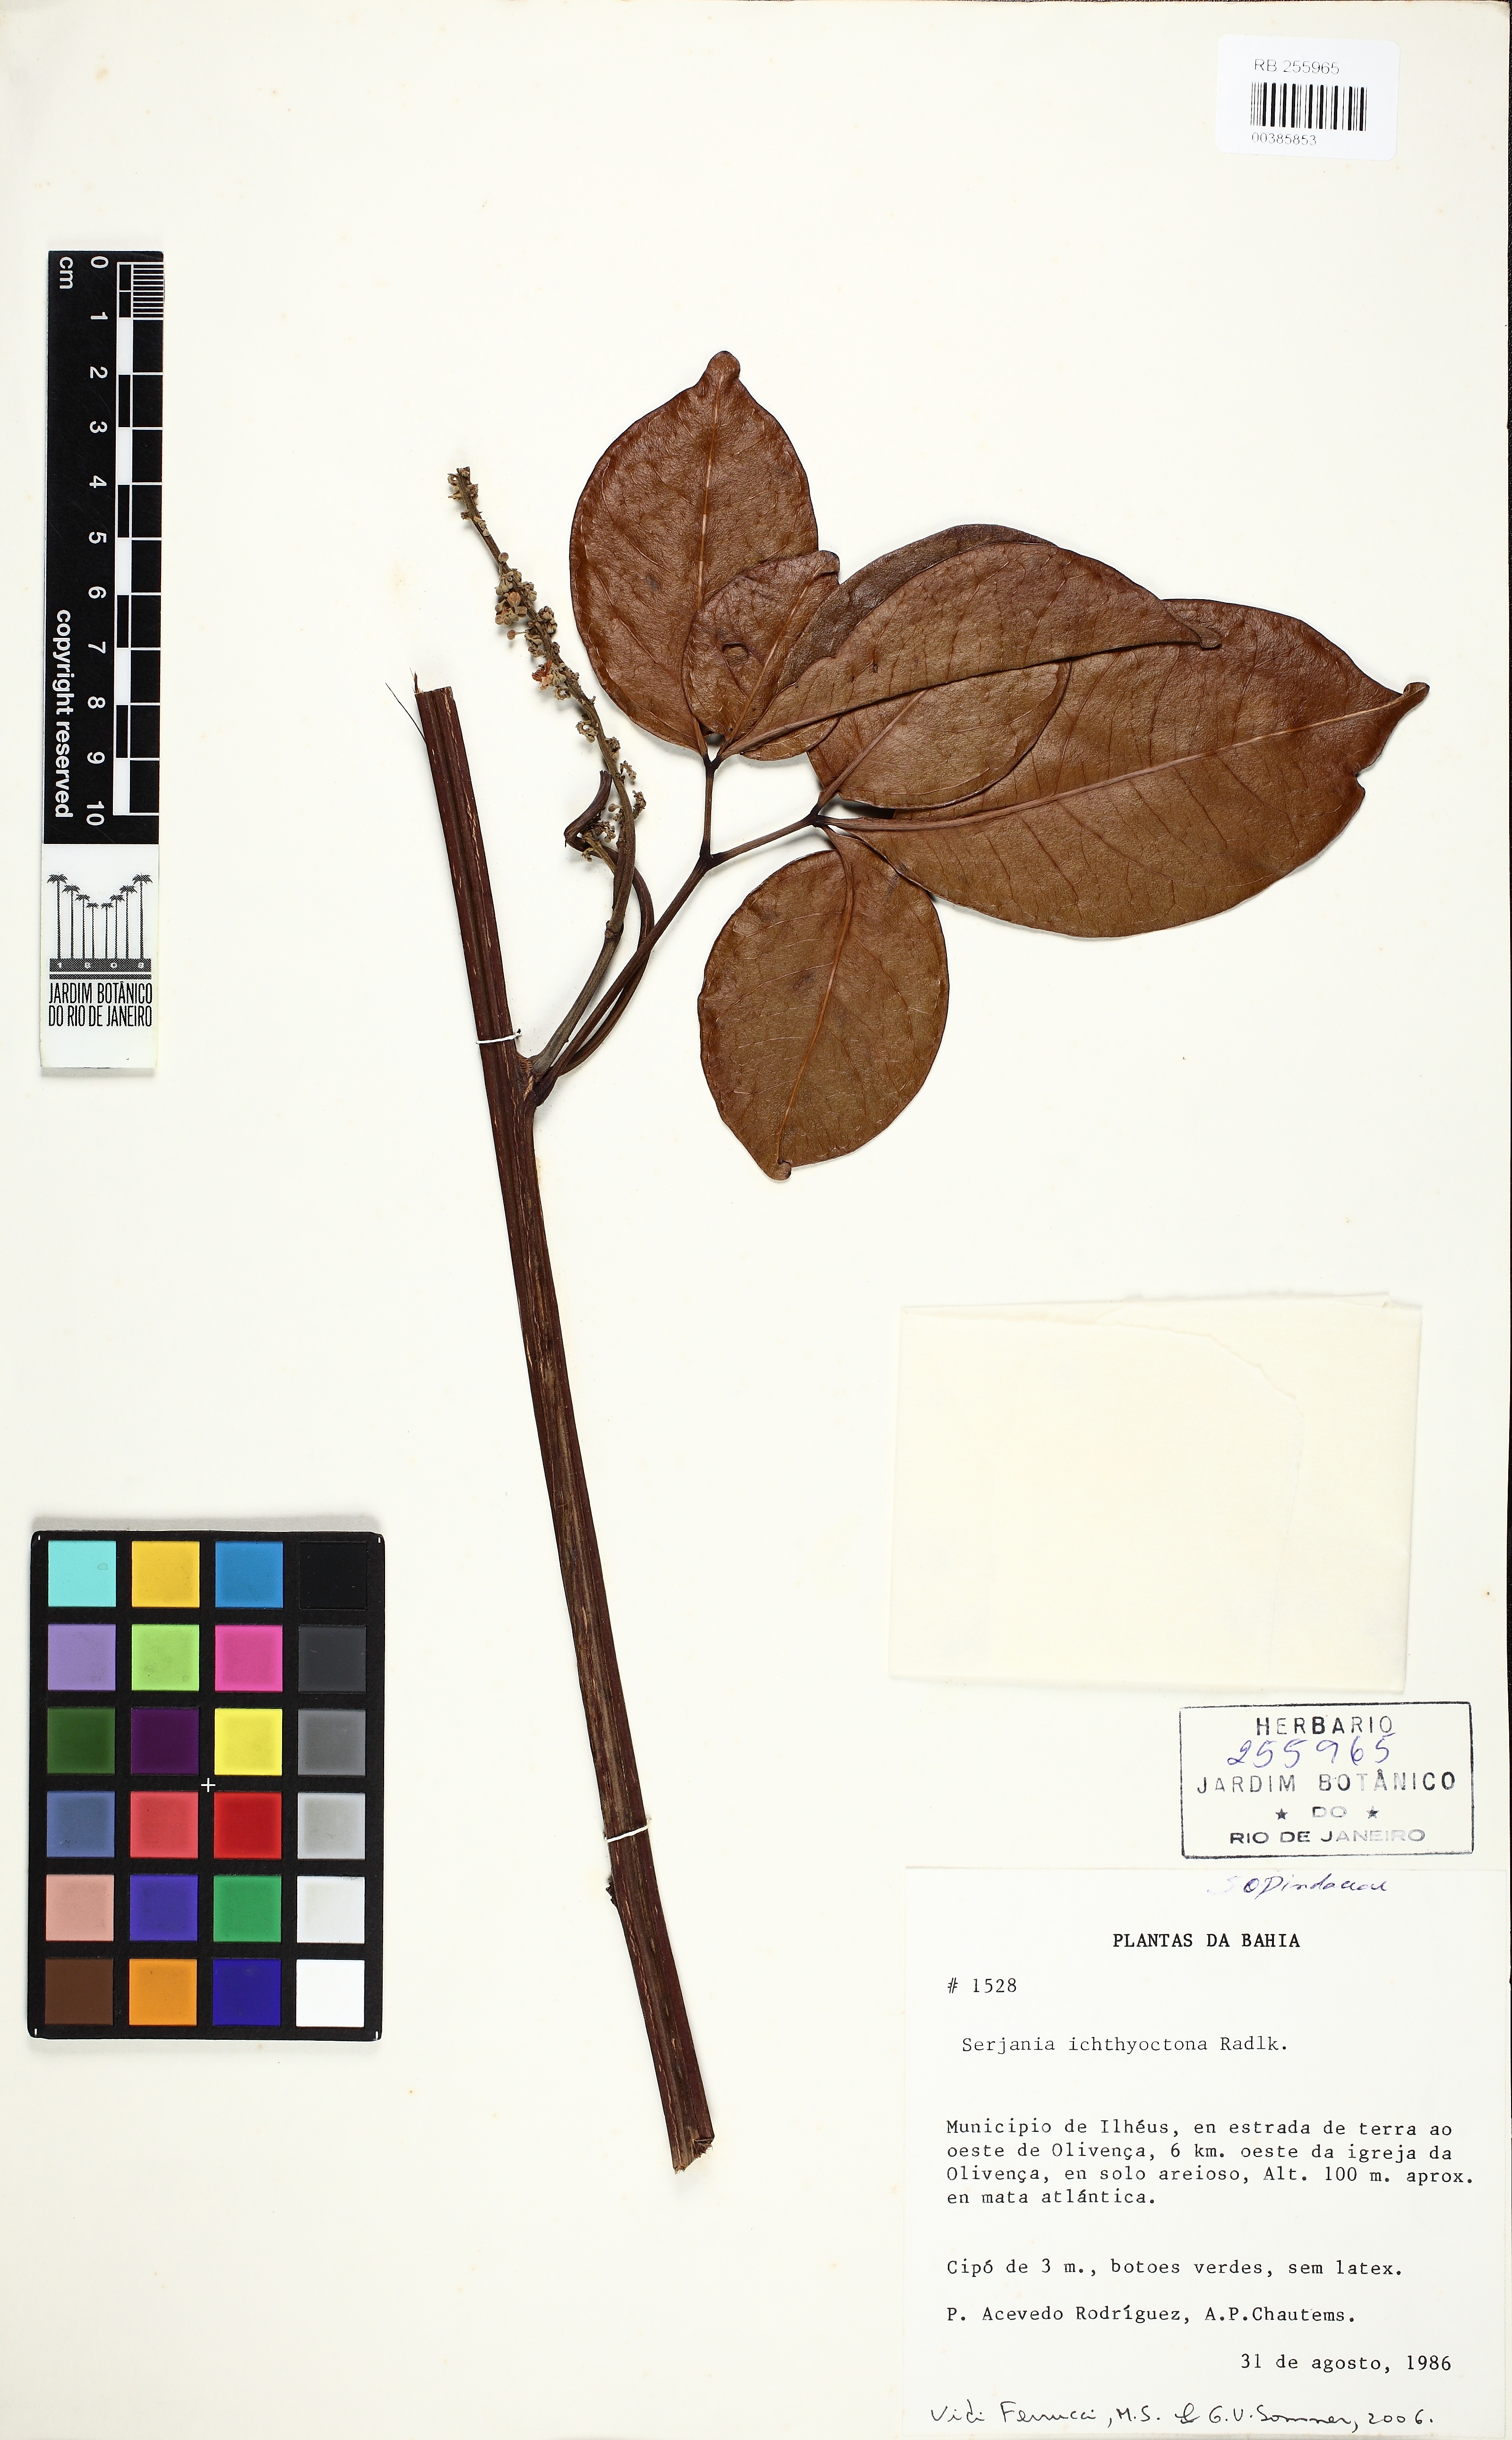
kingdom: Plantae
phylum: Tracheophyta
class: Magnoliopsida
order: Sapindales
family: Sapindaceae
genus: Serjania
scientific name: Serjania ichthyctona
